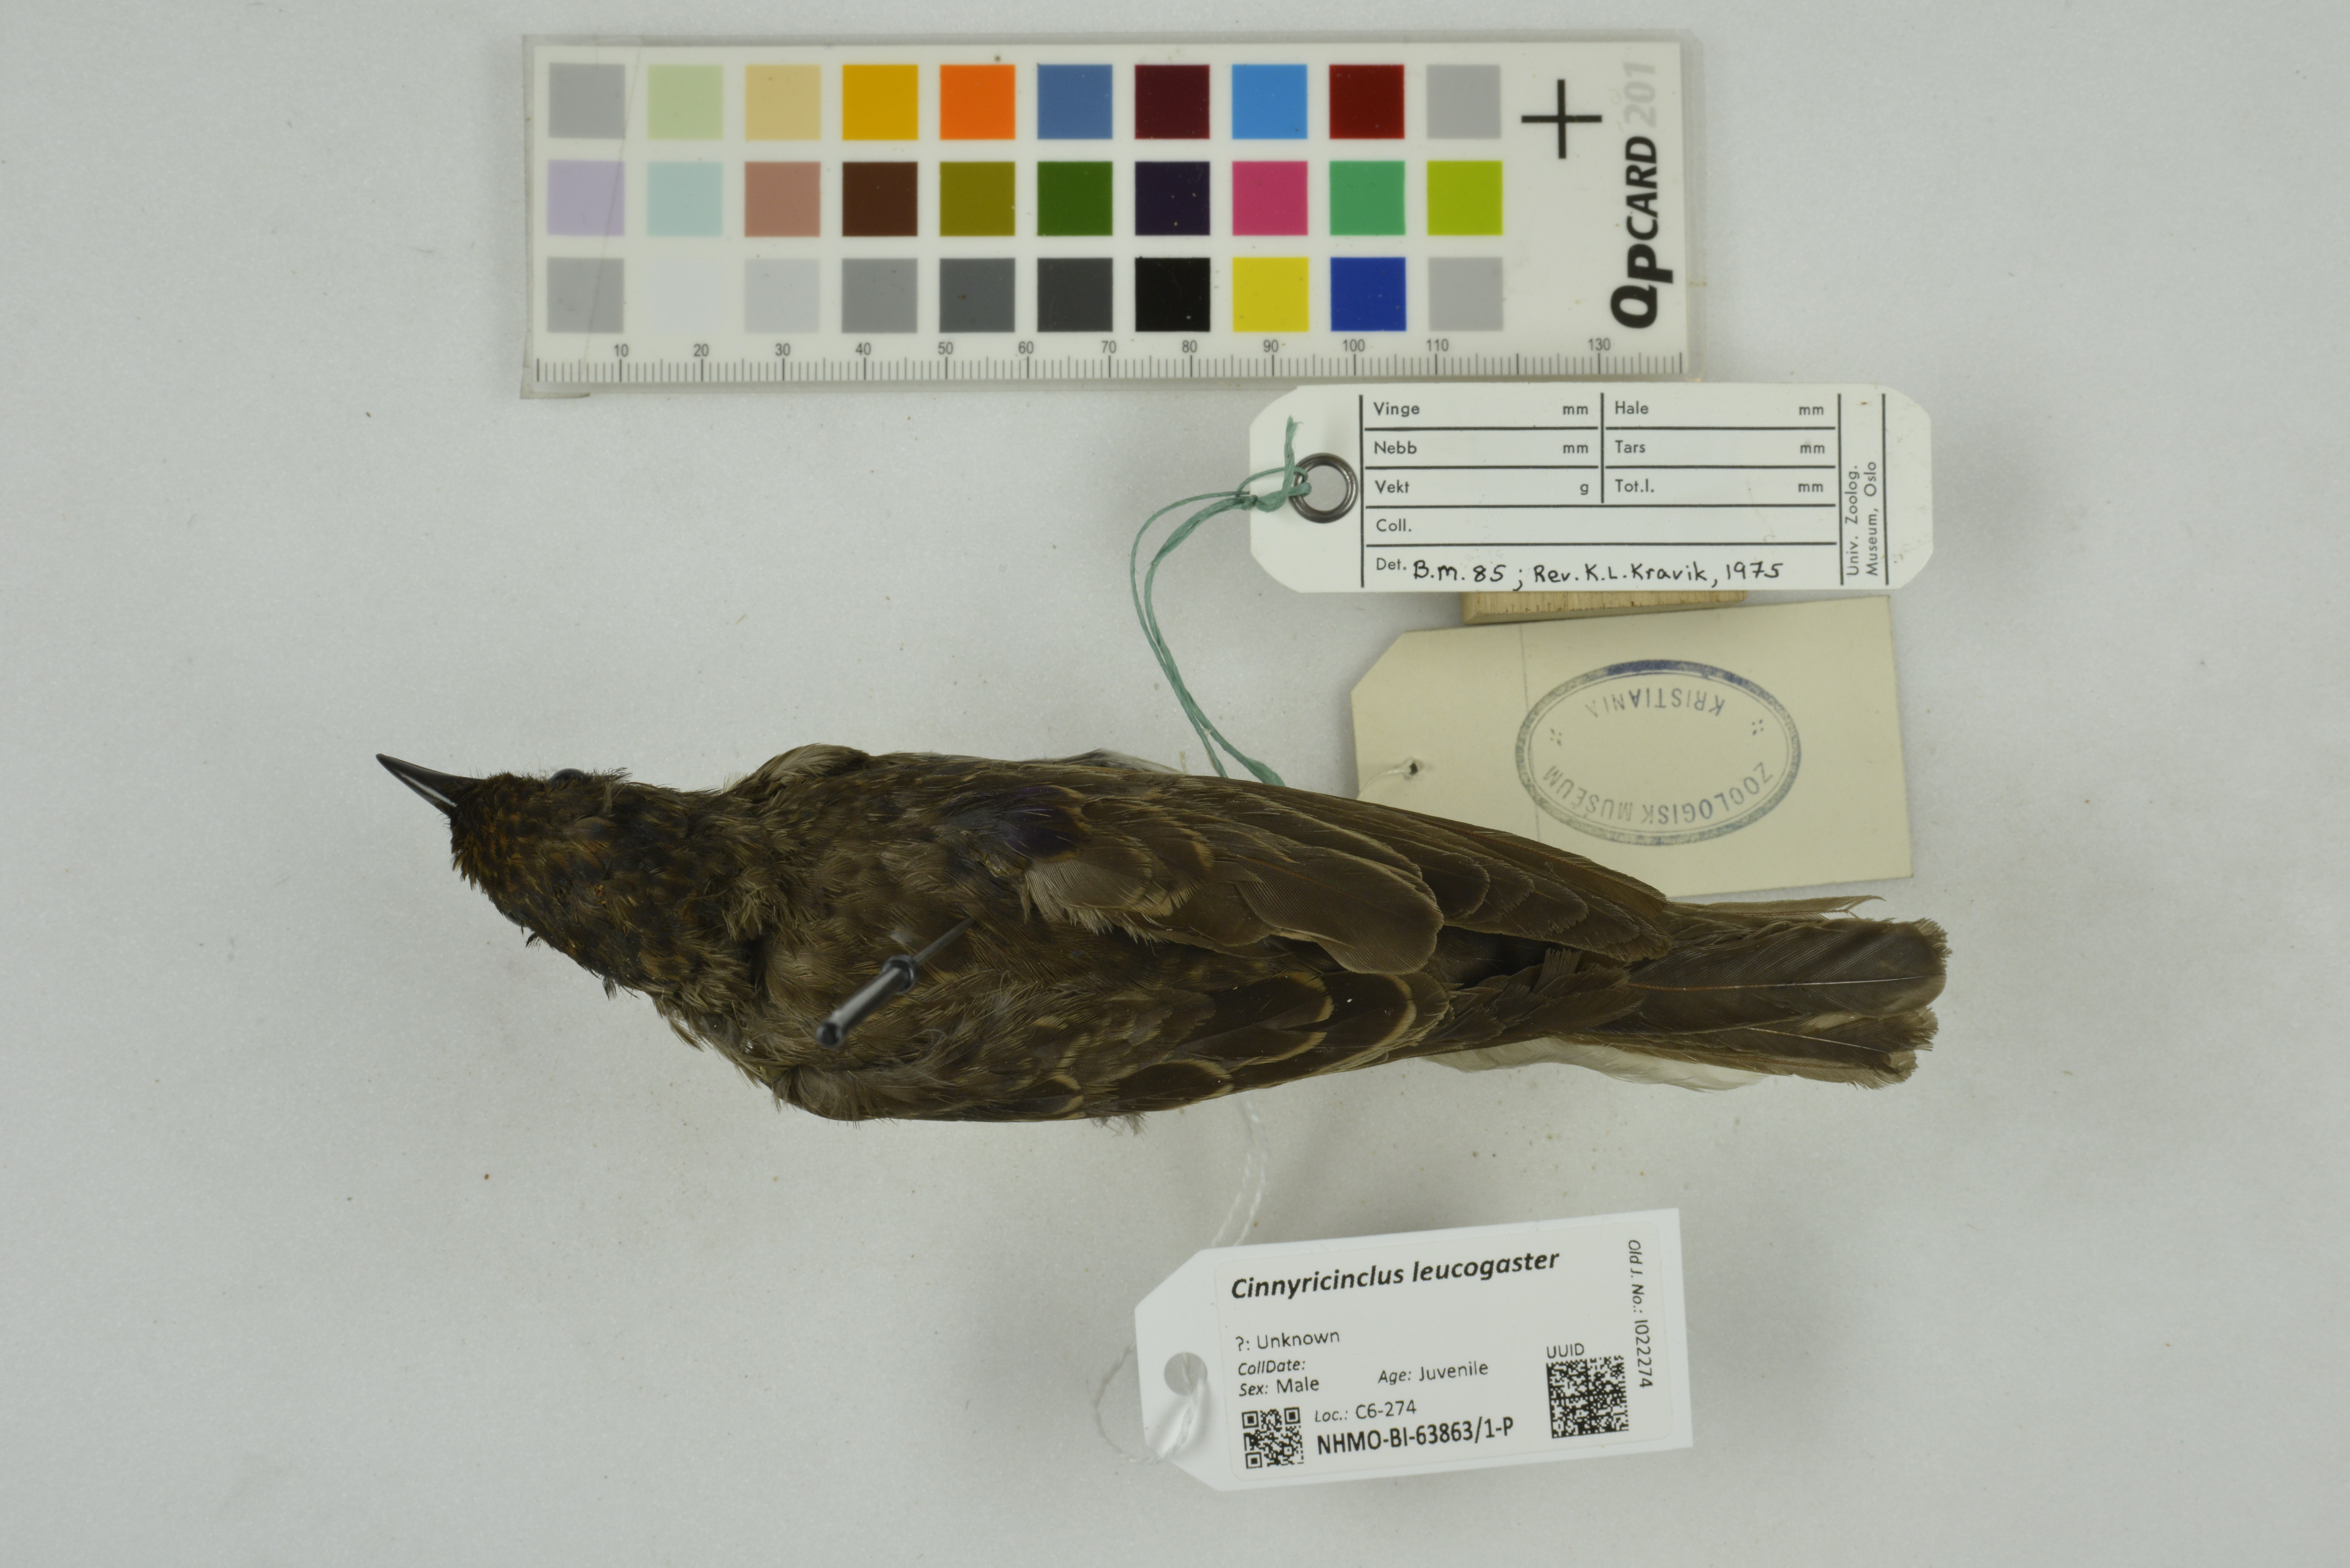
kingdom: Animalia
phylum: Chordata
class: Aves
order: Passeriformes
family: Sturnidae
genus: Cinnyricinclus
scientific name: Cinnyricinclus leucogaster
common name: Violet-backed starling
